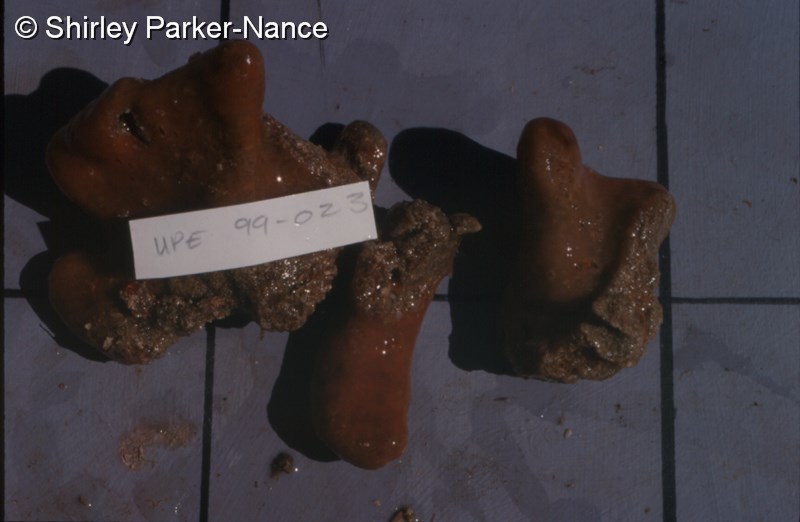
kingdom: Animalia
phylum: Chordata
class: Ascidiacea
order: Aplousobranchia
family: Clavelinidae
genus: Pycnoclavella
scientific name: Pycnoclavella inflorescens
